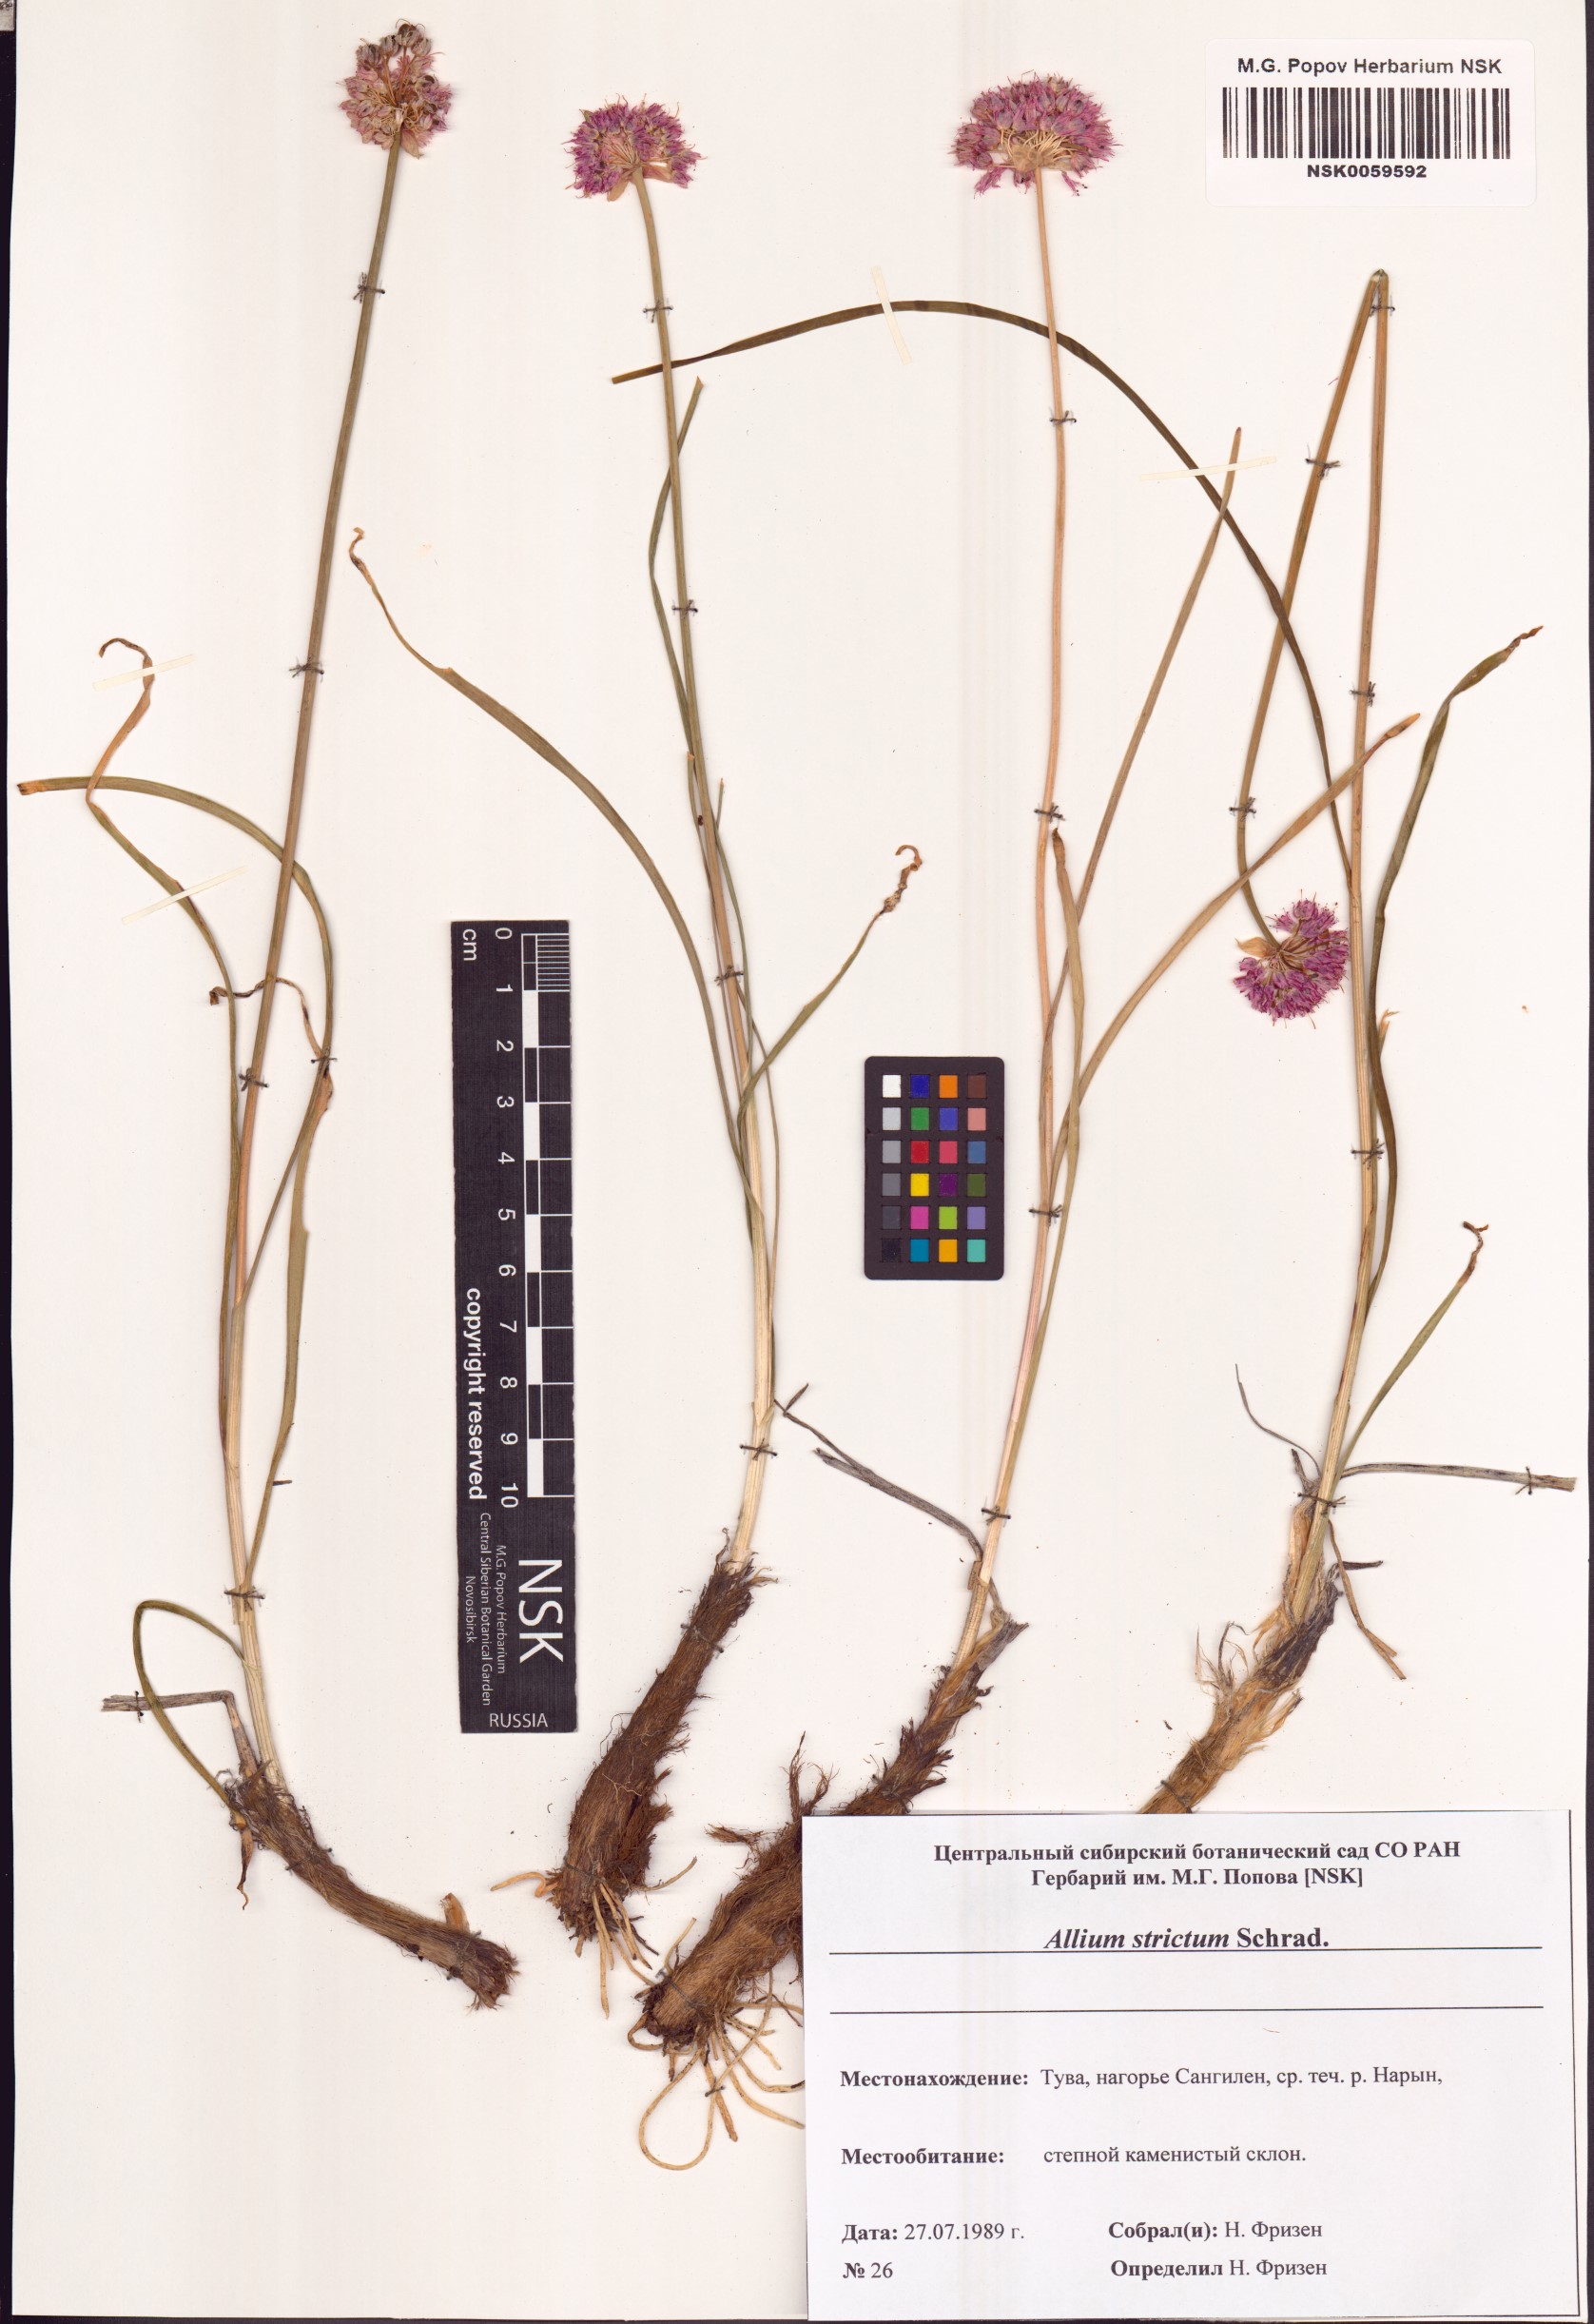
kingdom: Plantae
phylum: Tracheophyta
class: Liliopsida
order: Asparagales
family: Amaryllidaceae
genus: Allium
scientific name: Allium strictum
